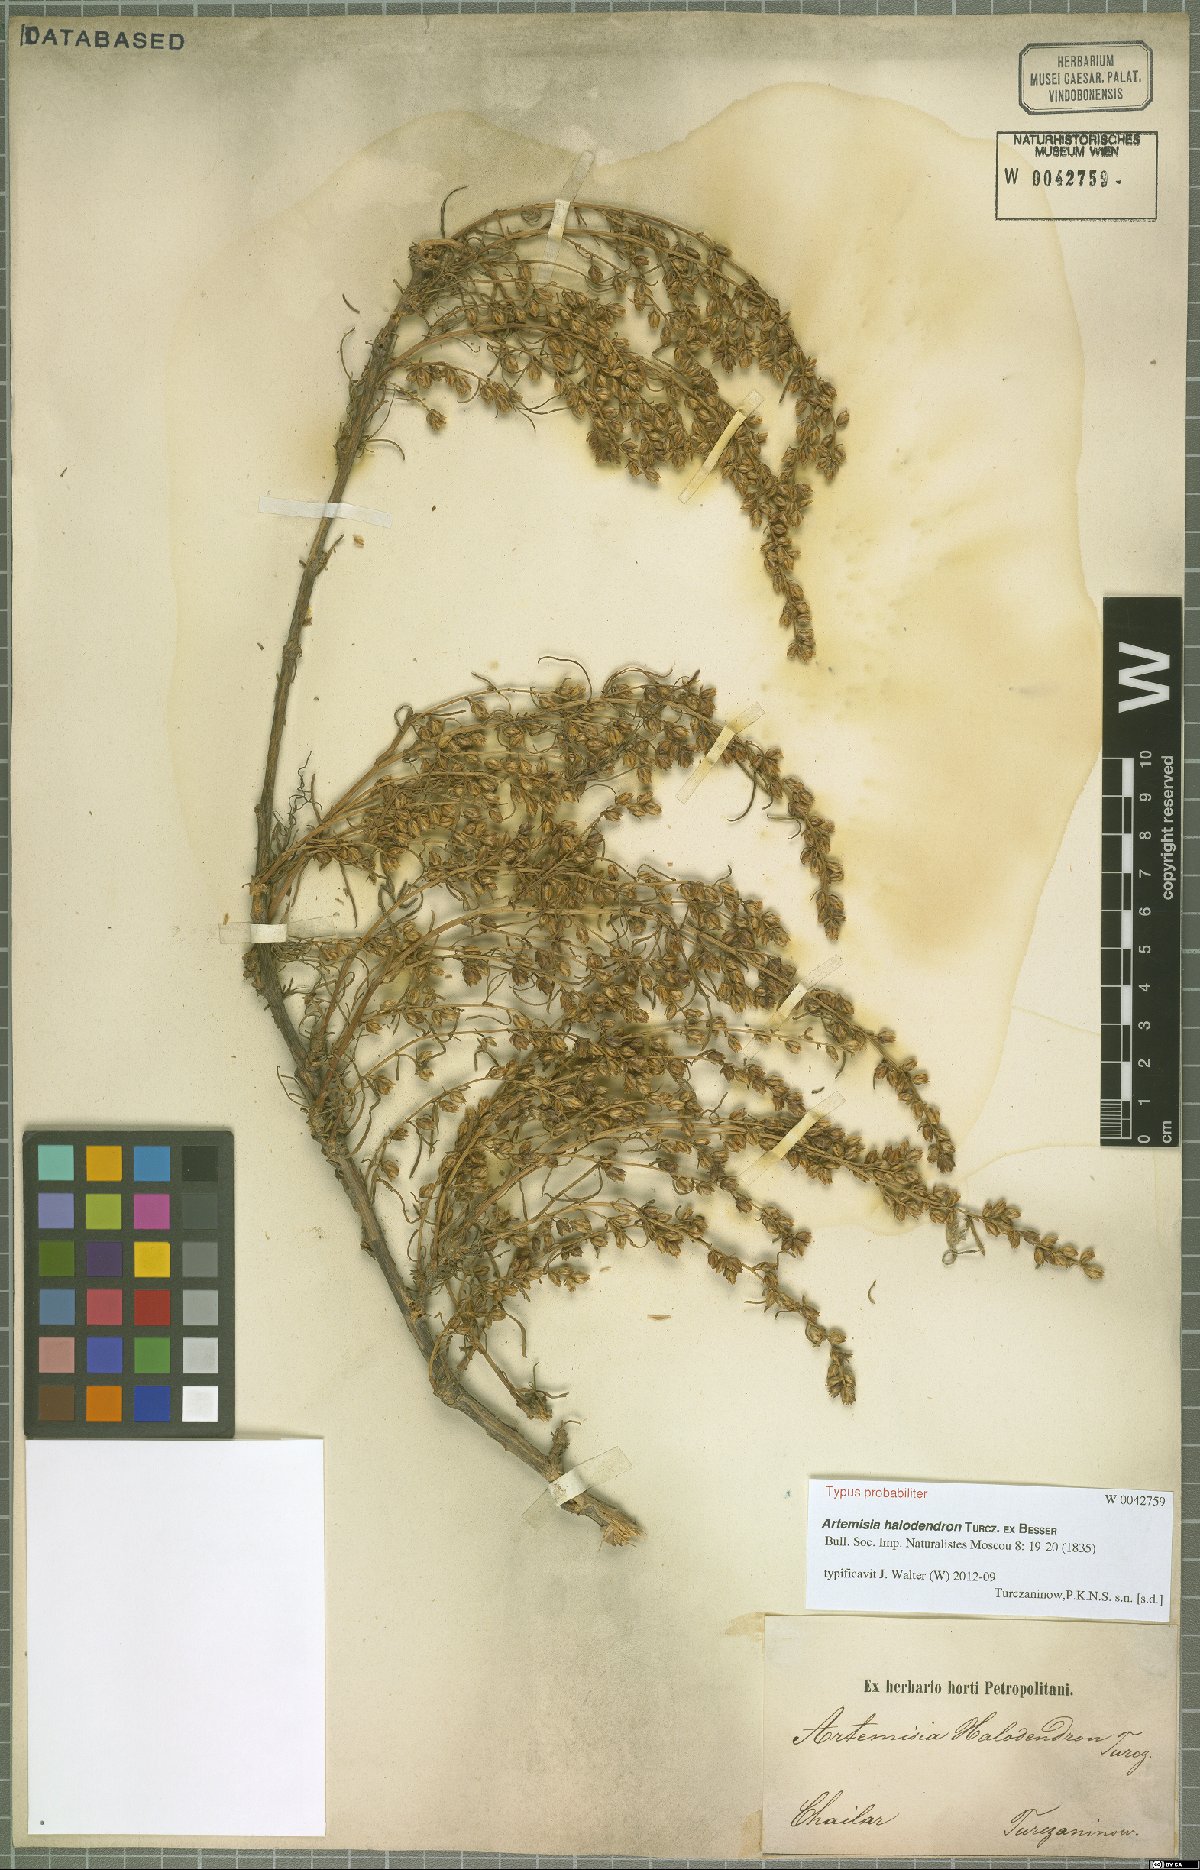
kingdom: Plantae
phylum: Tracheophyta
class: Magnoliopsida
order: Asterales
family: Asteraceae
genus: Artemisia
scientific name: Artemisia halodendron
